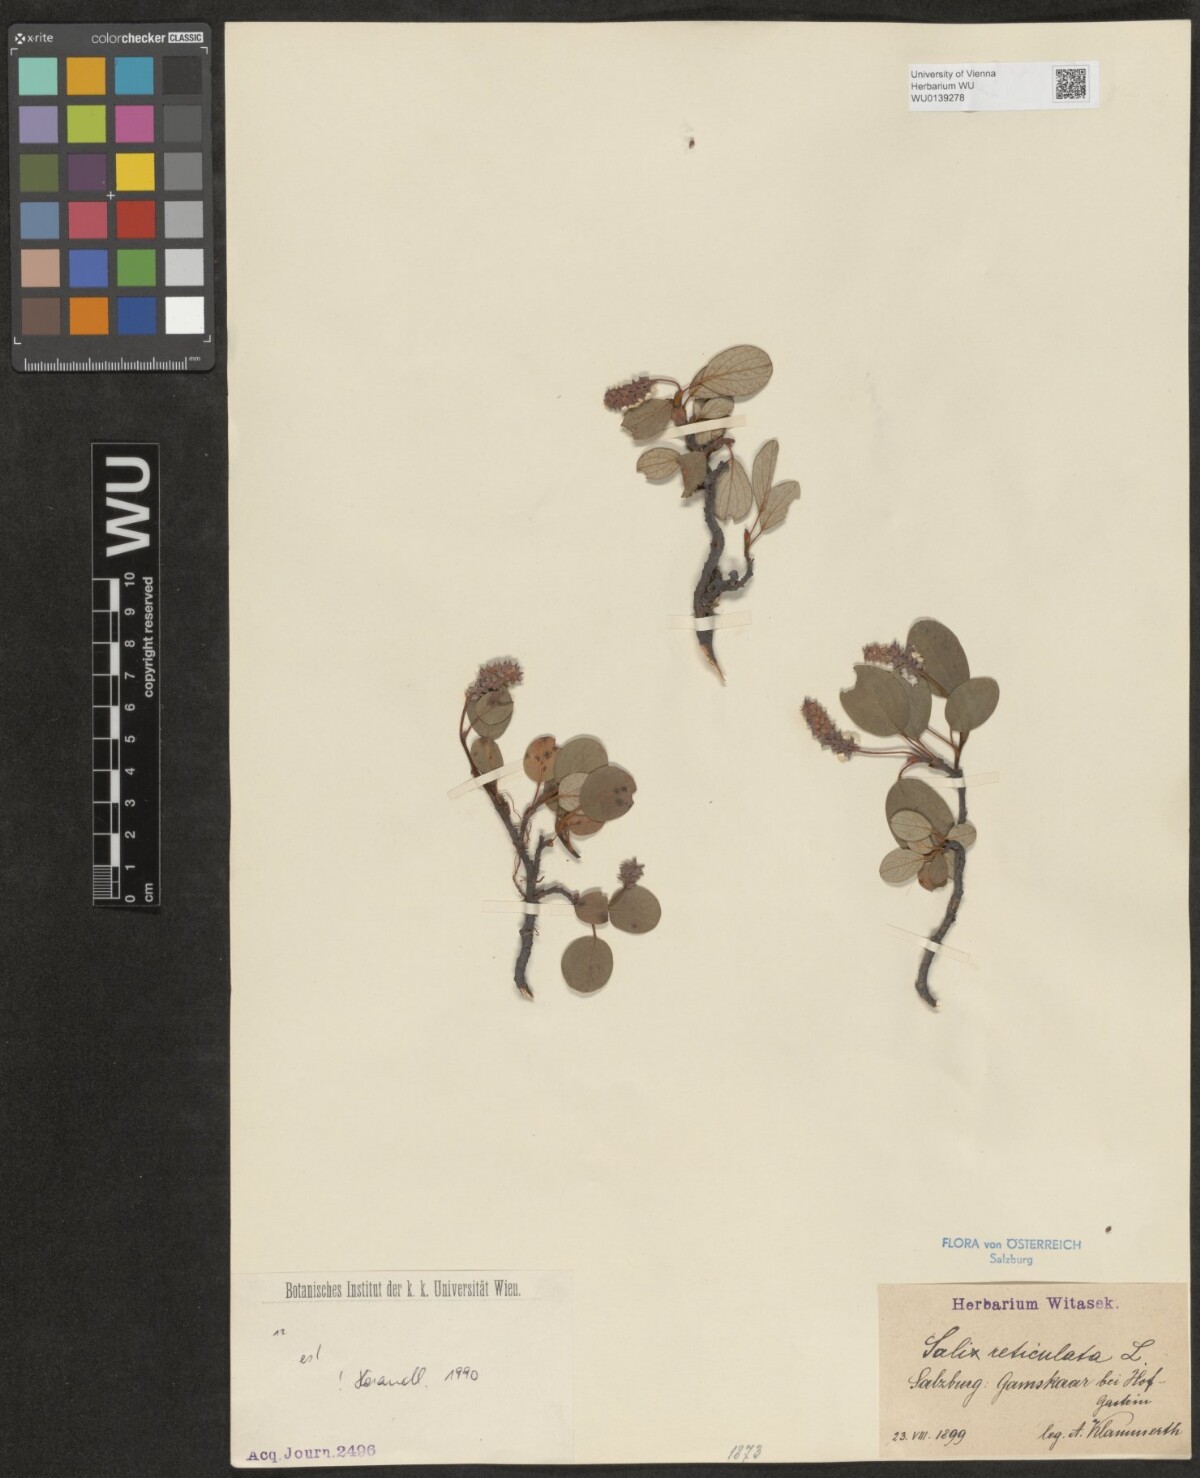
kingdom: Plantae
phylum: Tracheophyta
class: Magnoliopsida
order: Malpighiales
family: Salicaceae
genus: Salix
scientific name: Salix reticulata
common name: Net-leaved willow
